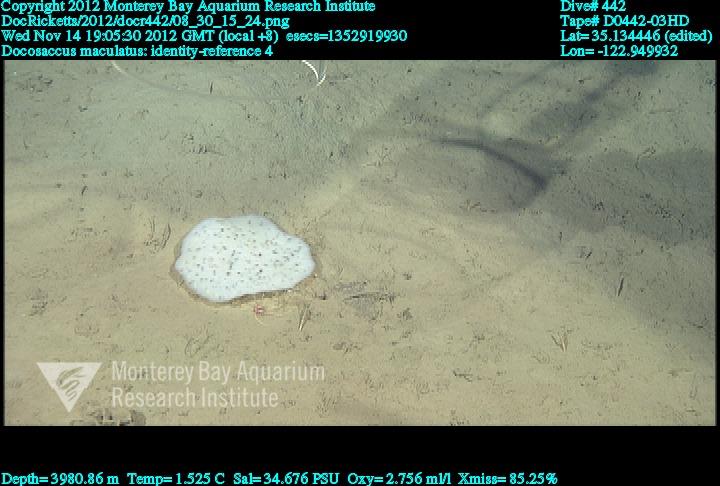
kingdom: Animalia
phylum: Porifera
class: Hexactinellida
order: Lyssacinosida
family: Euplectellidae
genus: Docosaccus
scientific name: Docosaccus maculatus
